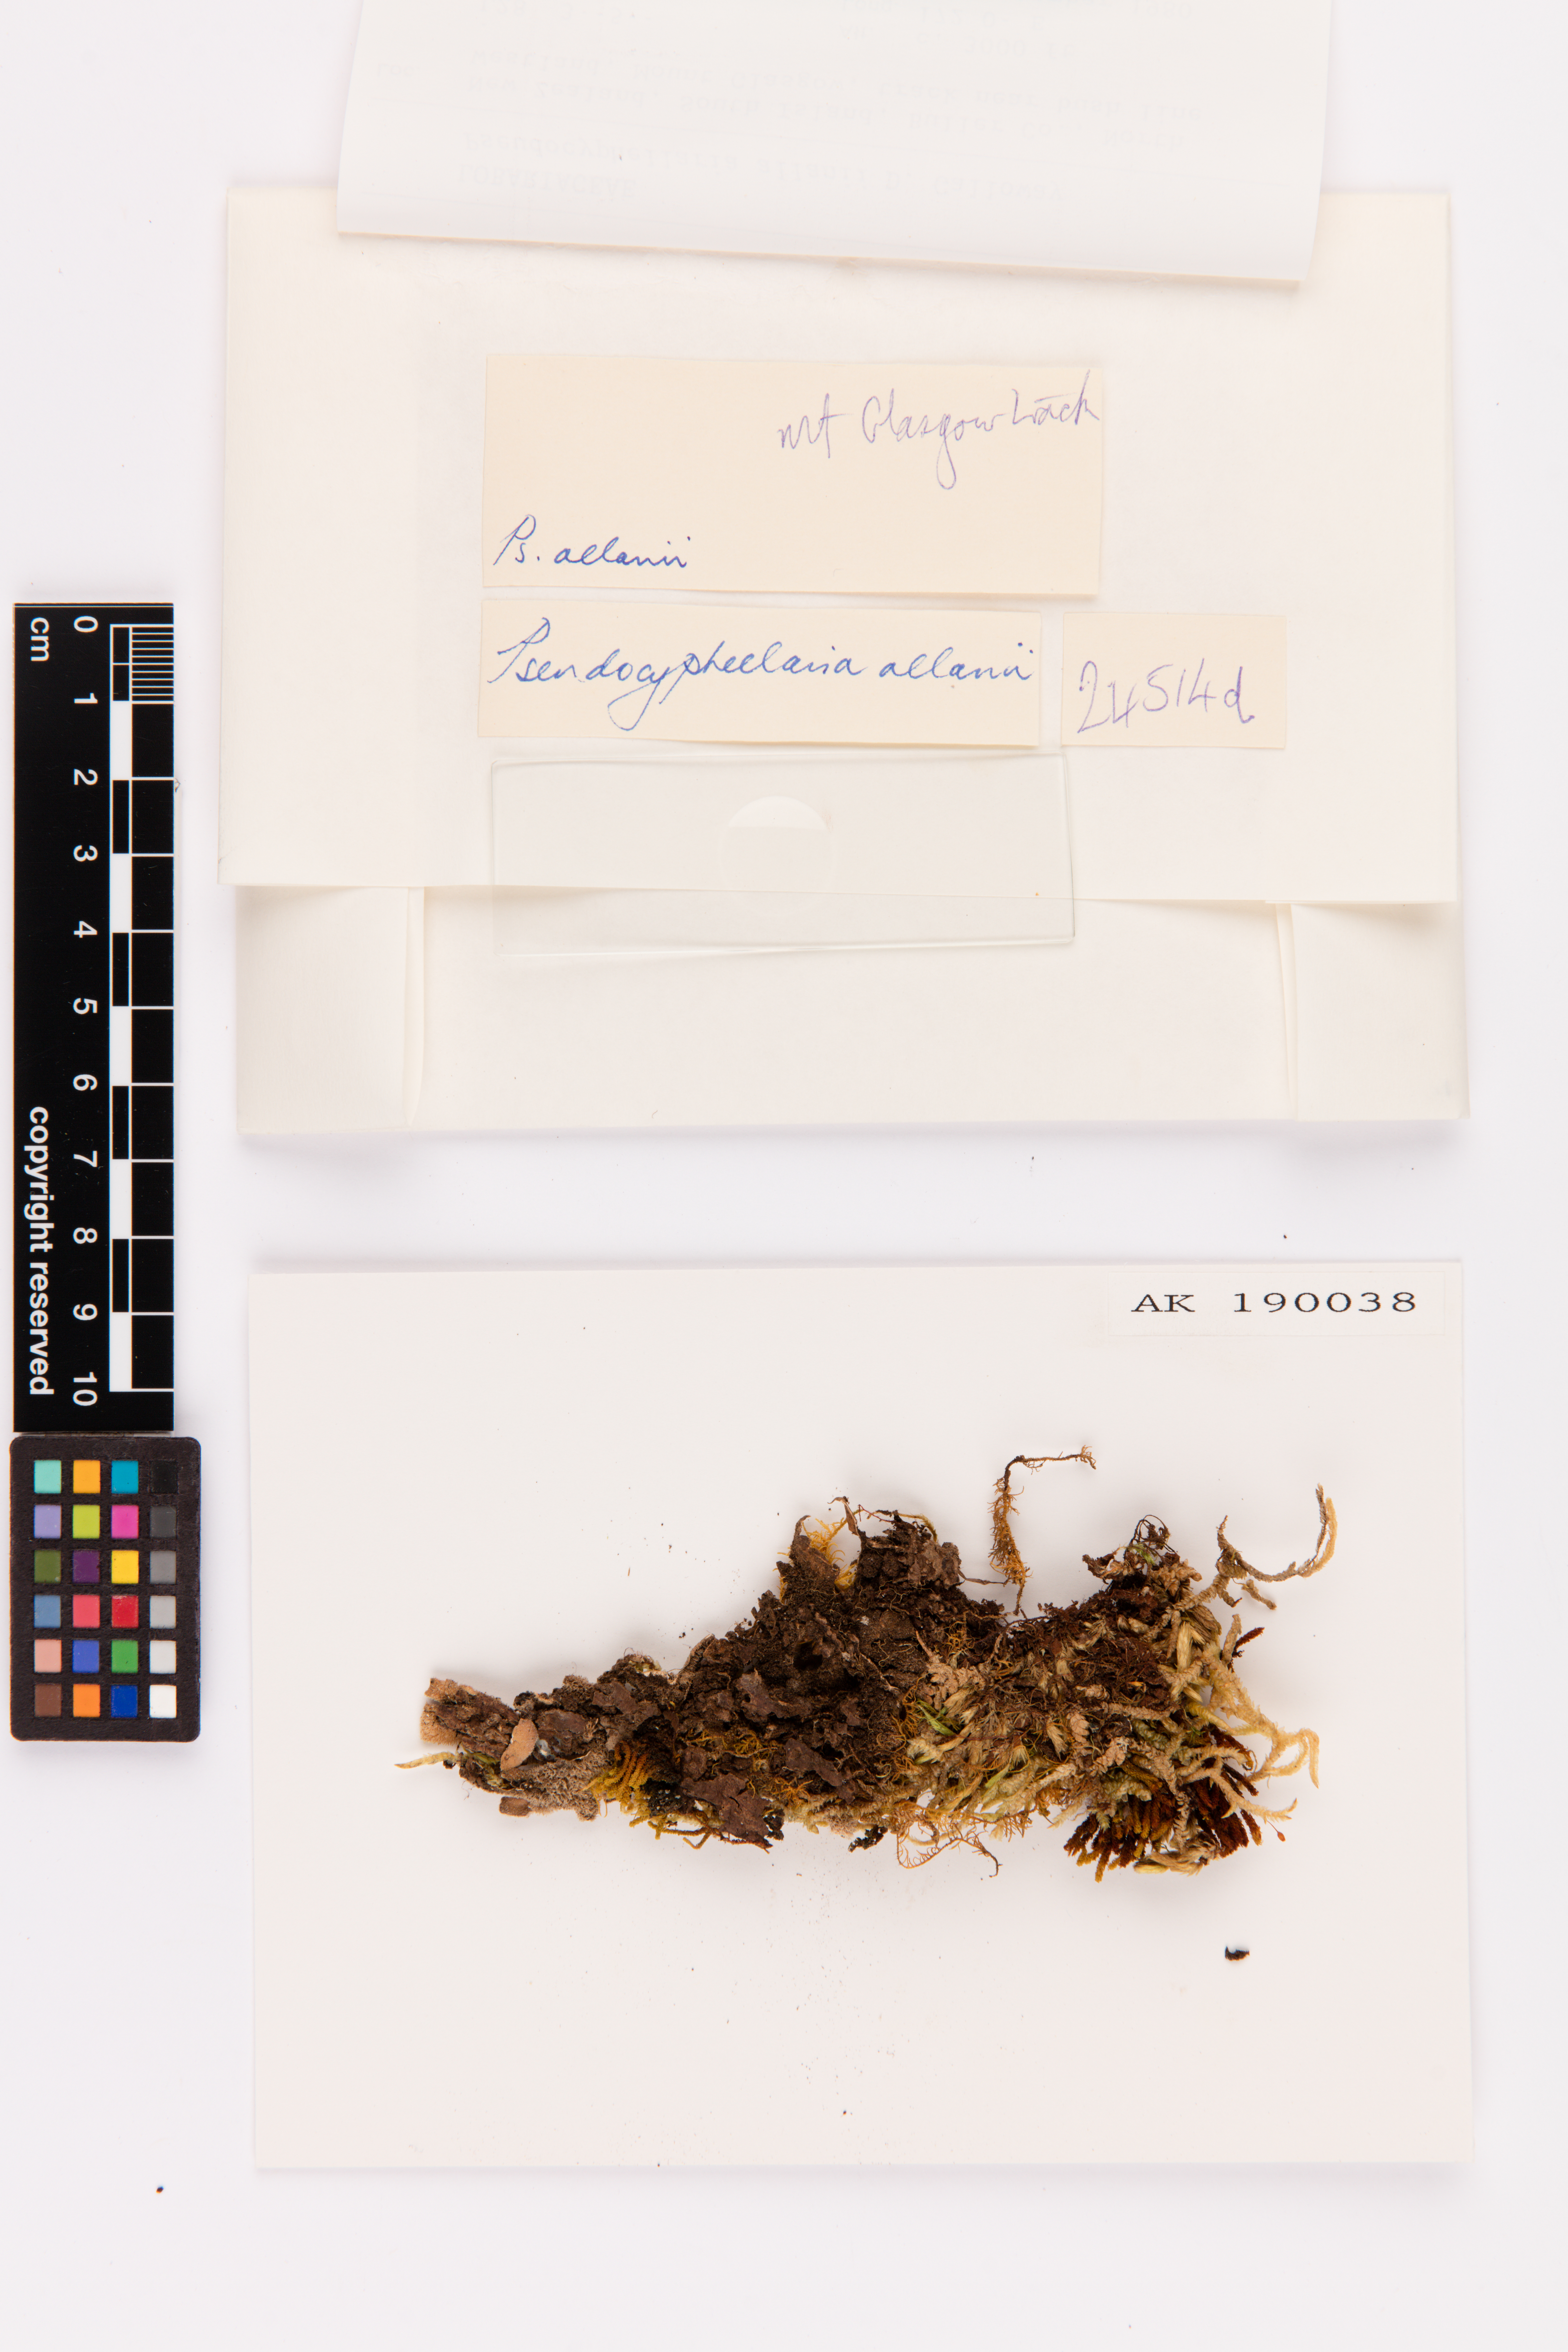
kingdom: Fungi
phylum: Ascomycota
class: Lecanoromycetes
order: Peltigerales
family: Lobariaceae
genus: Pseudocyphellaria
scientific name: Pseudocyphellaria allanii
